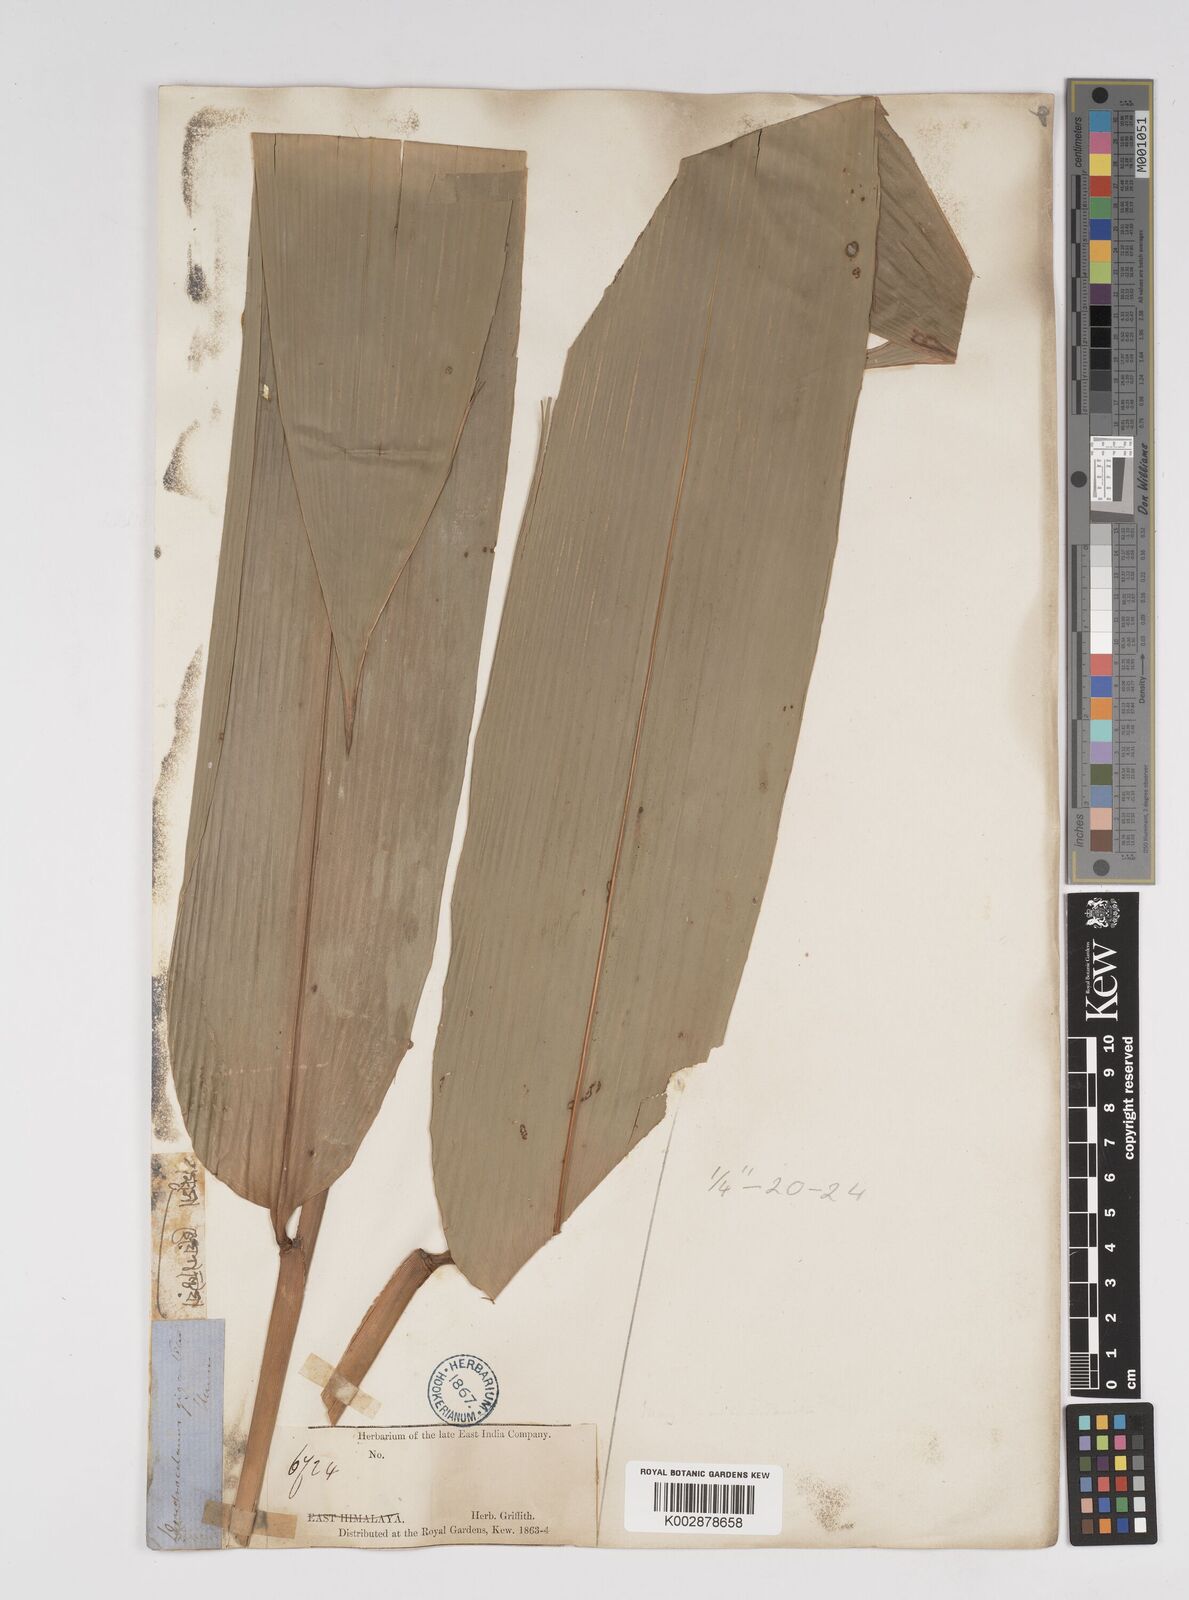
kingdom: Plantae
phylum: Tracheophyta
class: Liliopsida
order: Poales
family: Poaceae
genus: Dendrocalamus
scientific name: Dendrocalamus giganteus
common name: Giant bamboo
